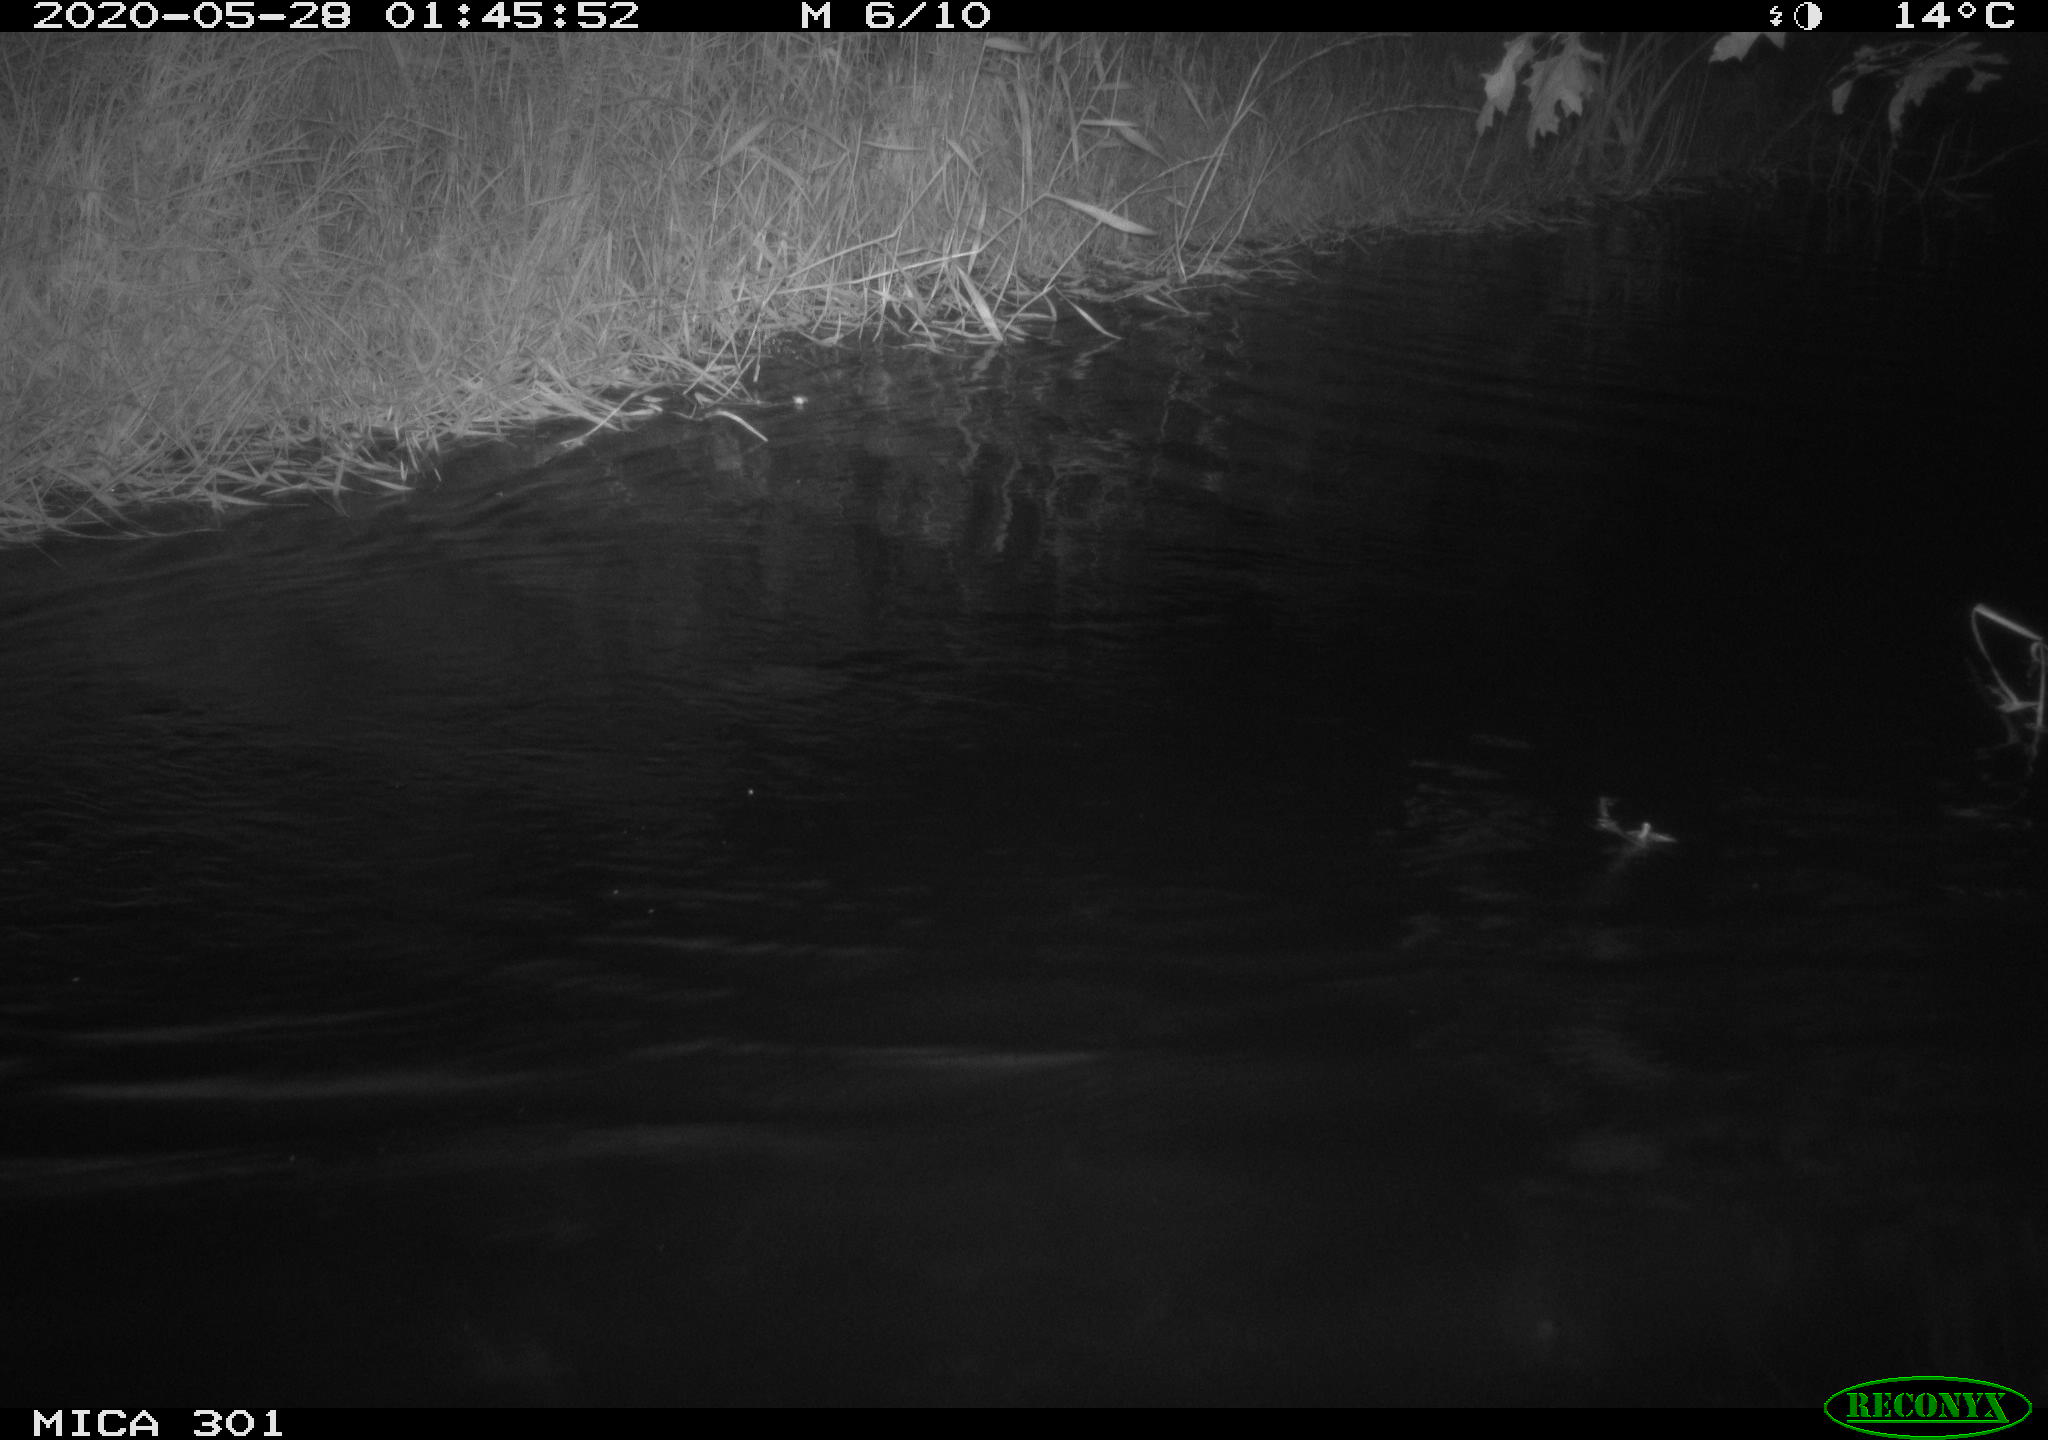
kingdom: Animalia
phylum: Chordata
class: Mammalia
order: Rodentia
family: Castoridae
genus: Castor
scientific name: Castor fiber
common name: Eurasian beaver
